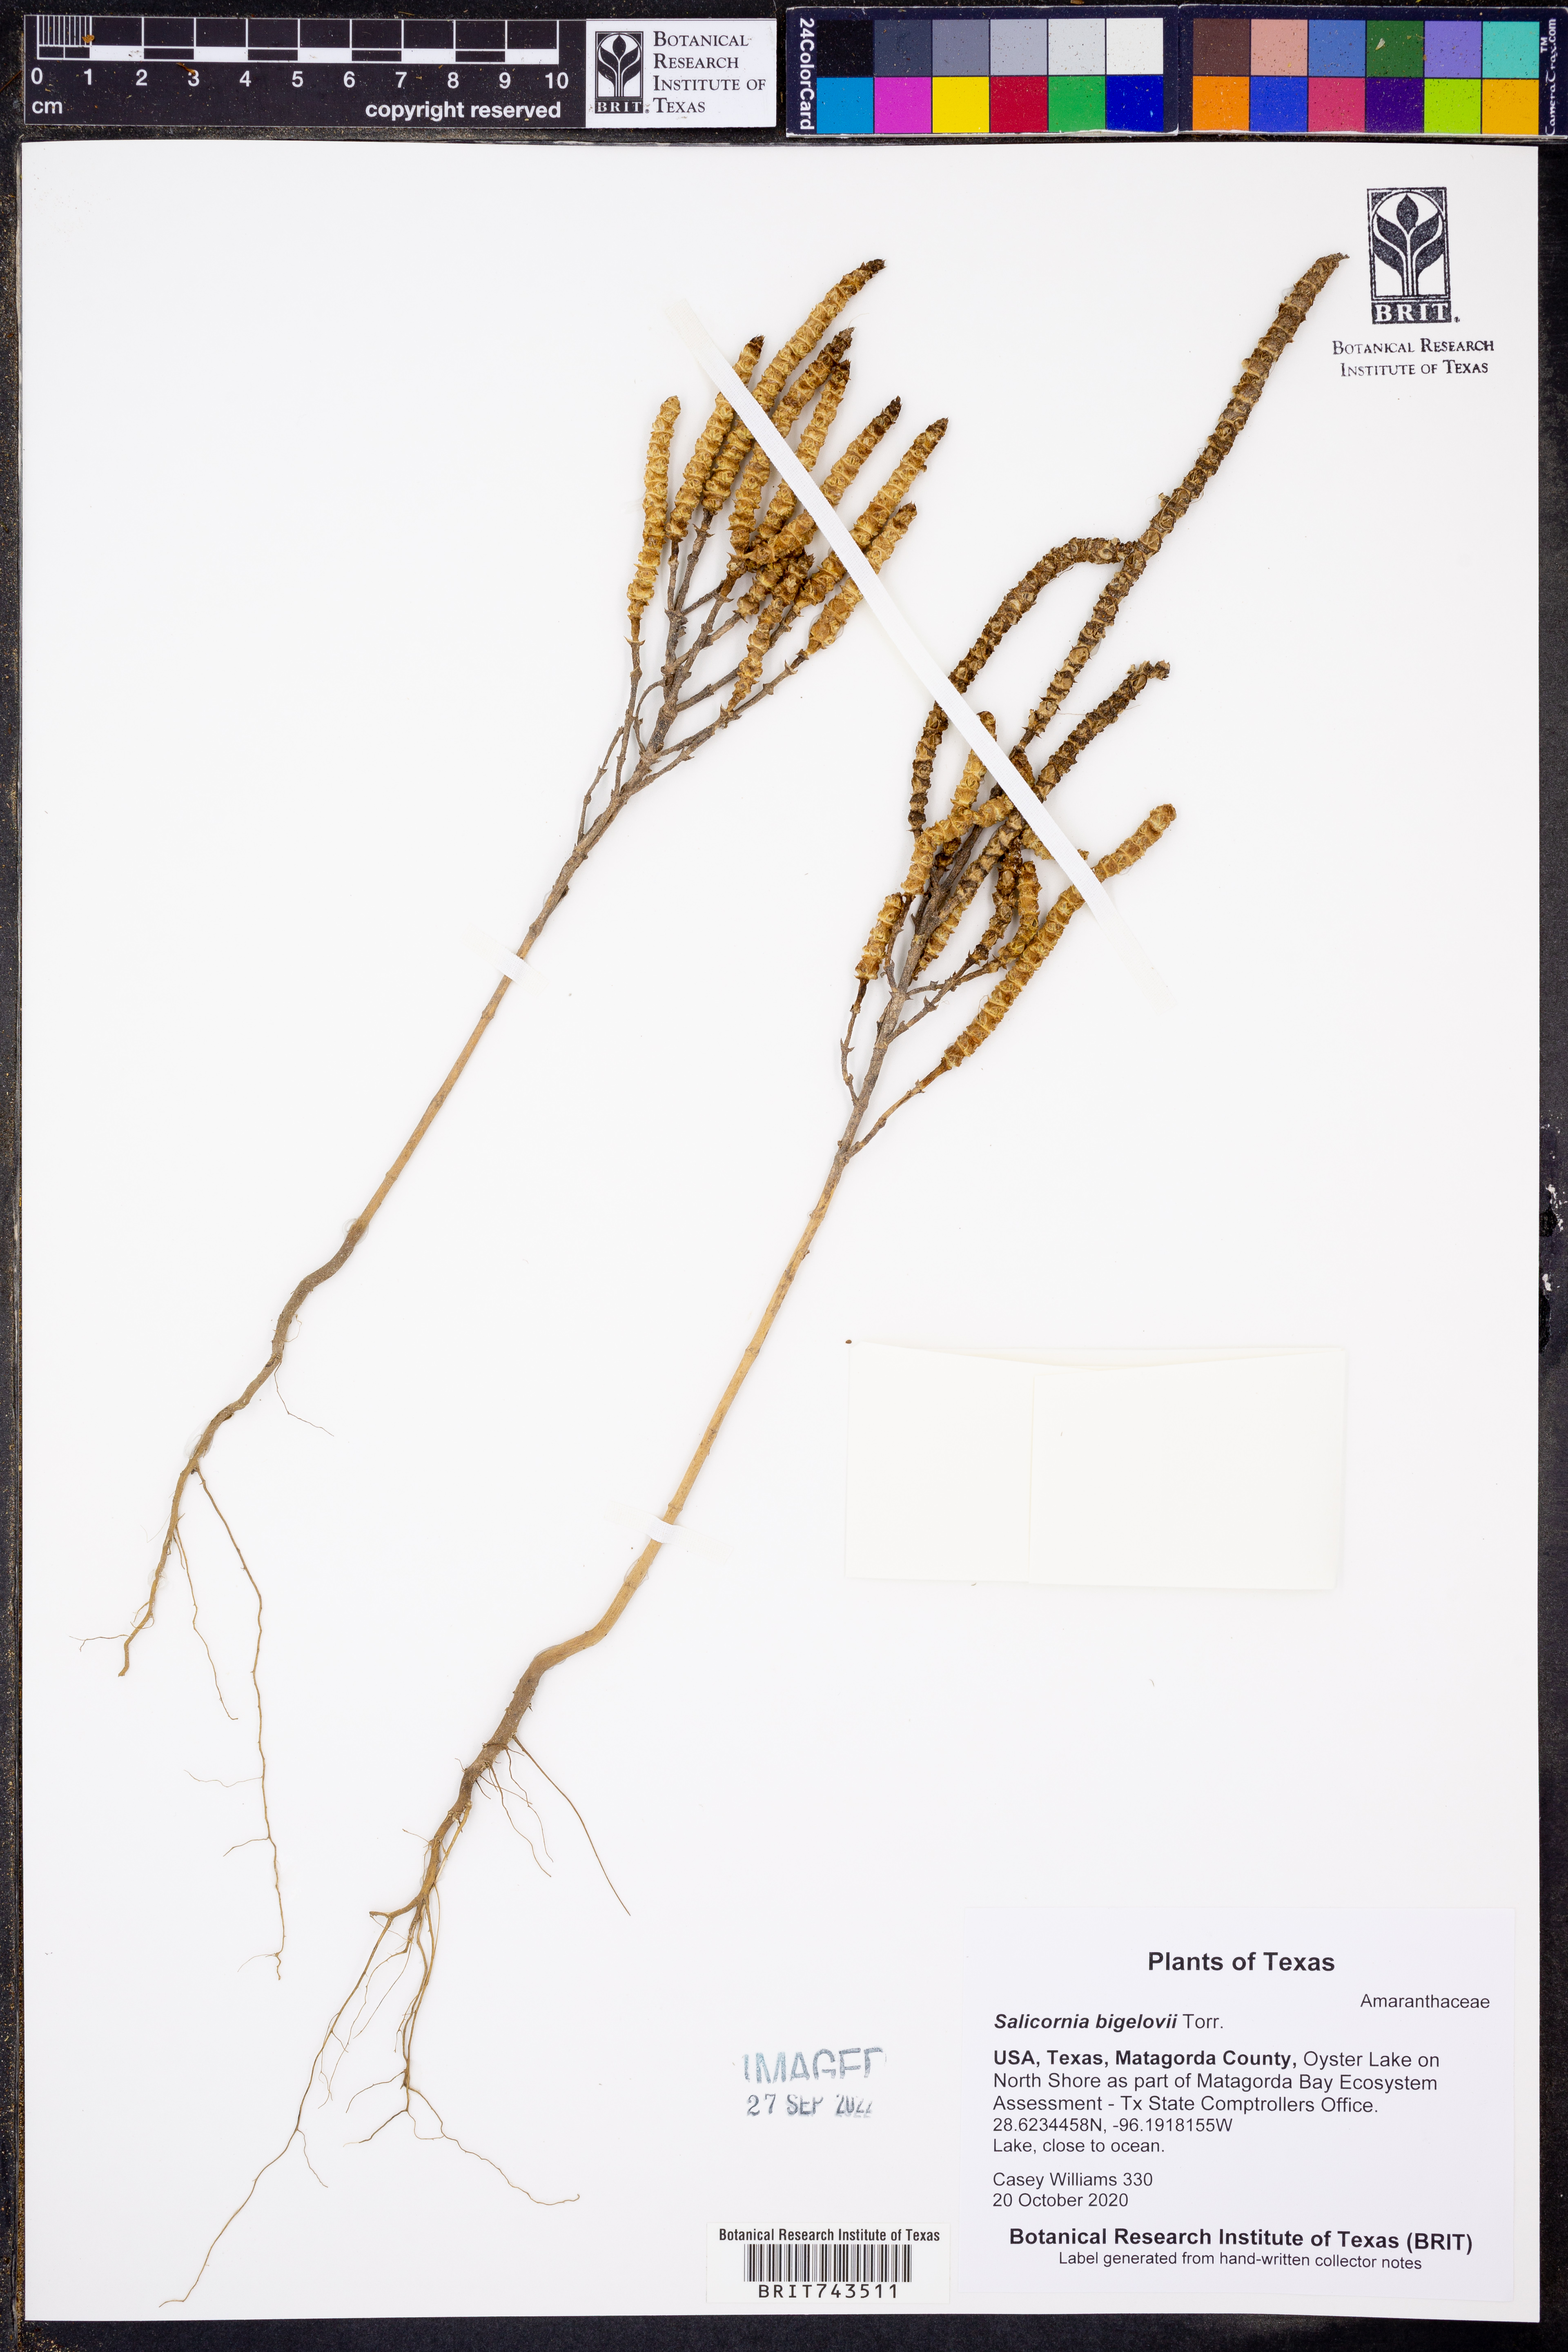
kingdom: Plantae
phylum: Tracheophyta
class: Magnoliopsida
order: Caryophyllales
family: Amaranthaceae
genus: Salicornia
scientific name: Salicornia bigelovii
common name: Dwarf glasswort
